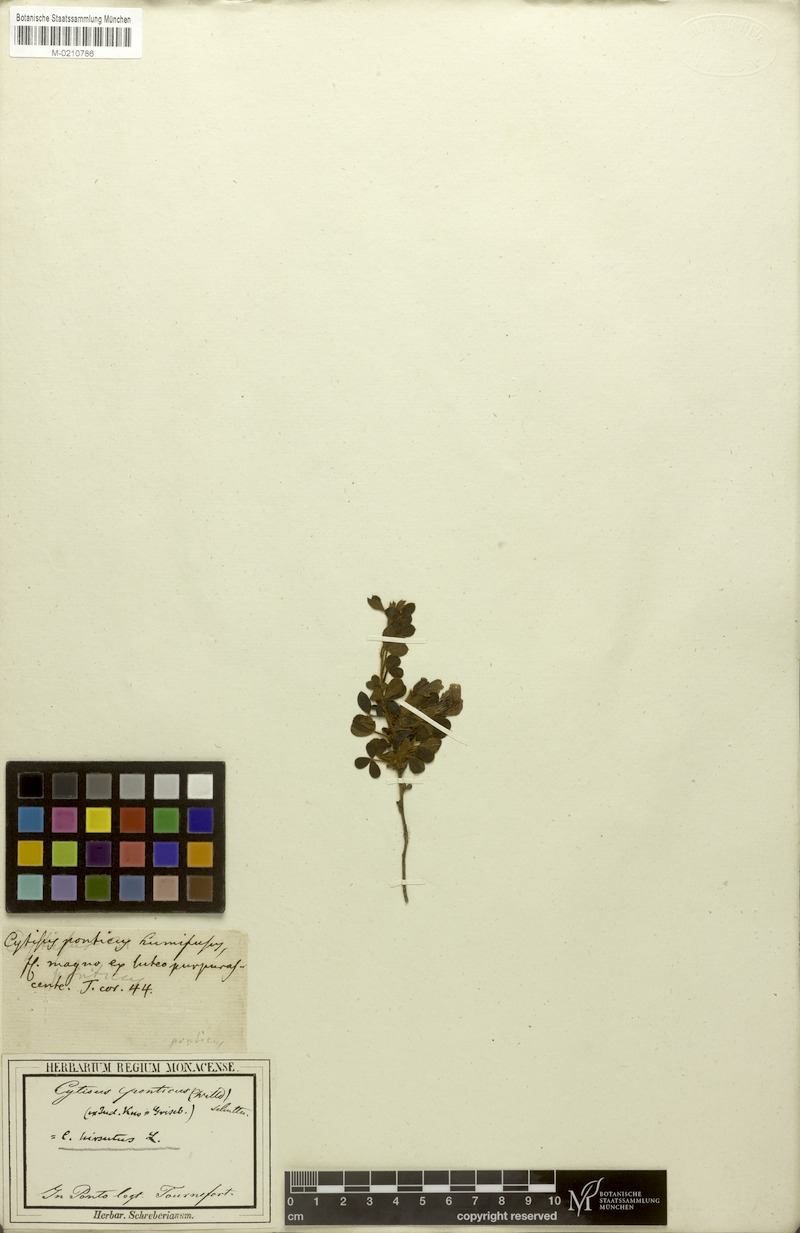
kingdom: Plantae
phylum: Tracheophyta
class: Magnoliopsida
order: Fabales
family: Fabaceae
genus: Chamaecytisus
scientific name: Chamaecytisus hirsutus
